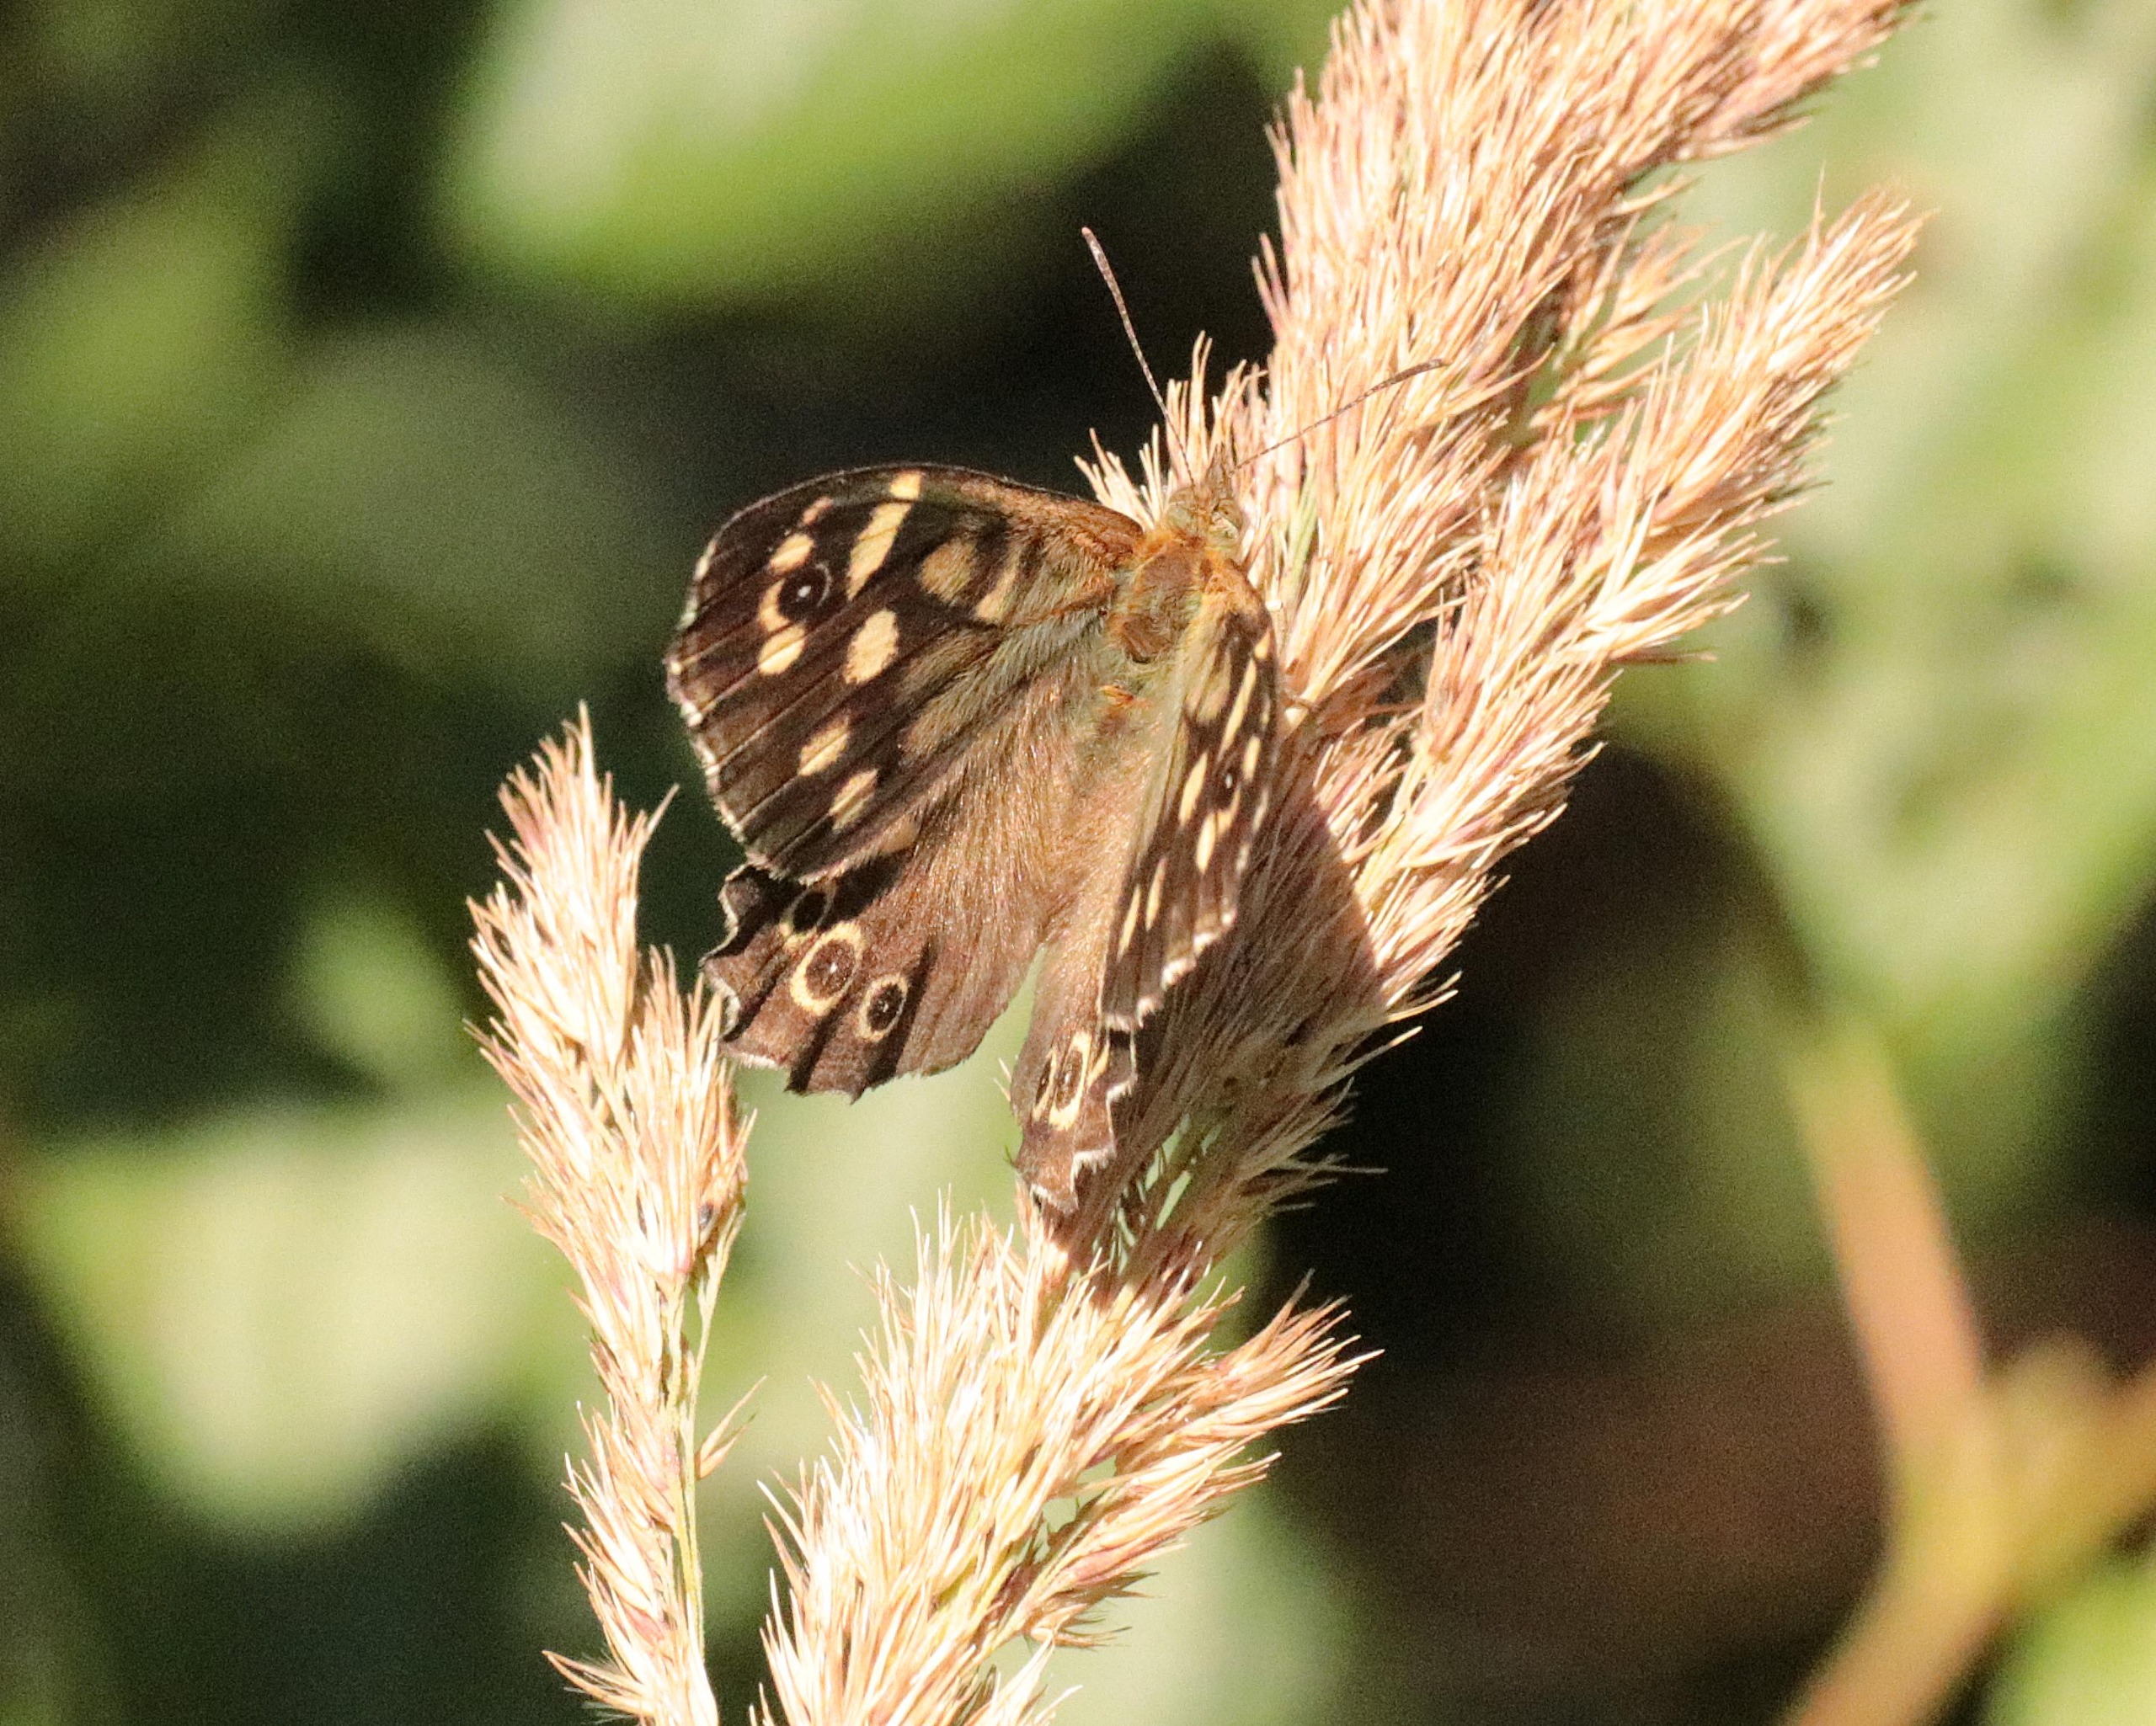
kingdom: Animalia
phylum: Arthropoda
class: Insecta
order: Lepidoptera
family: Nymphalidae
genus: Pararge
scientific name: Pararge aegeria
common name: Skovrandøje
